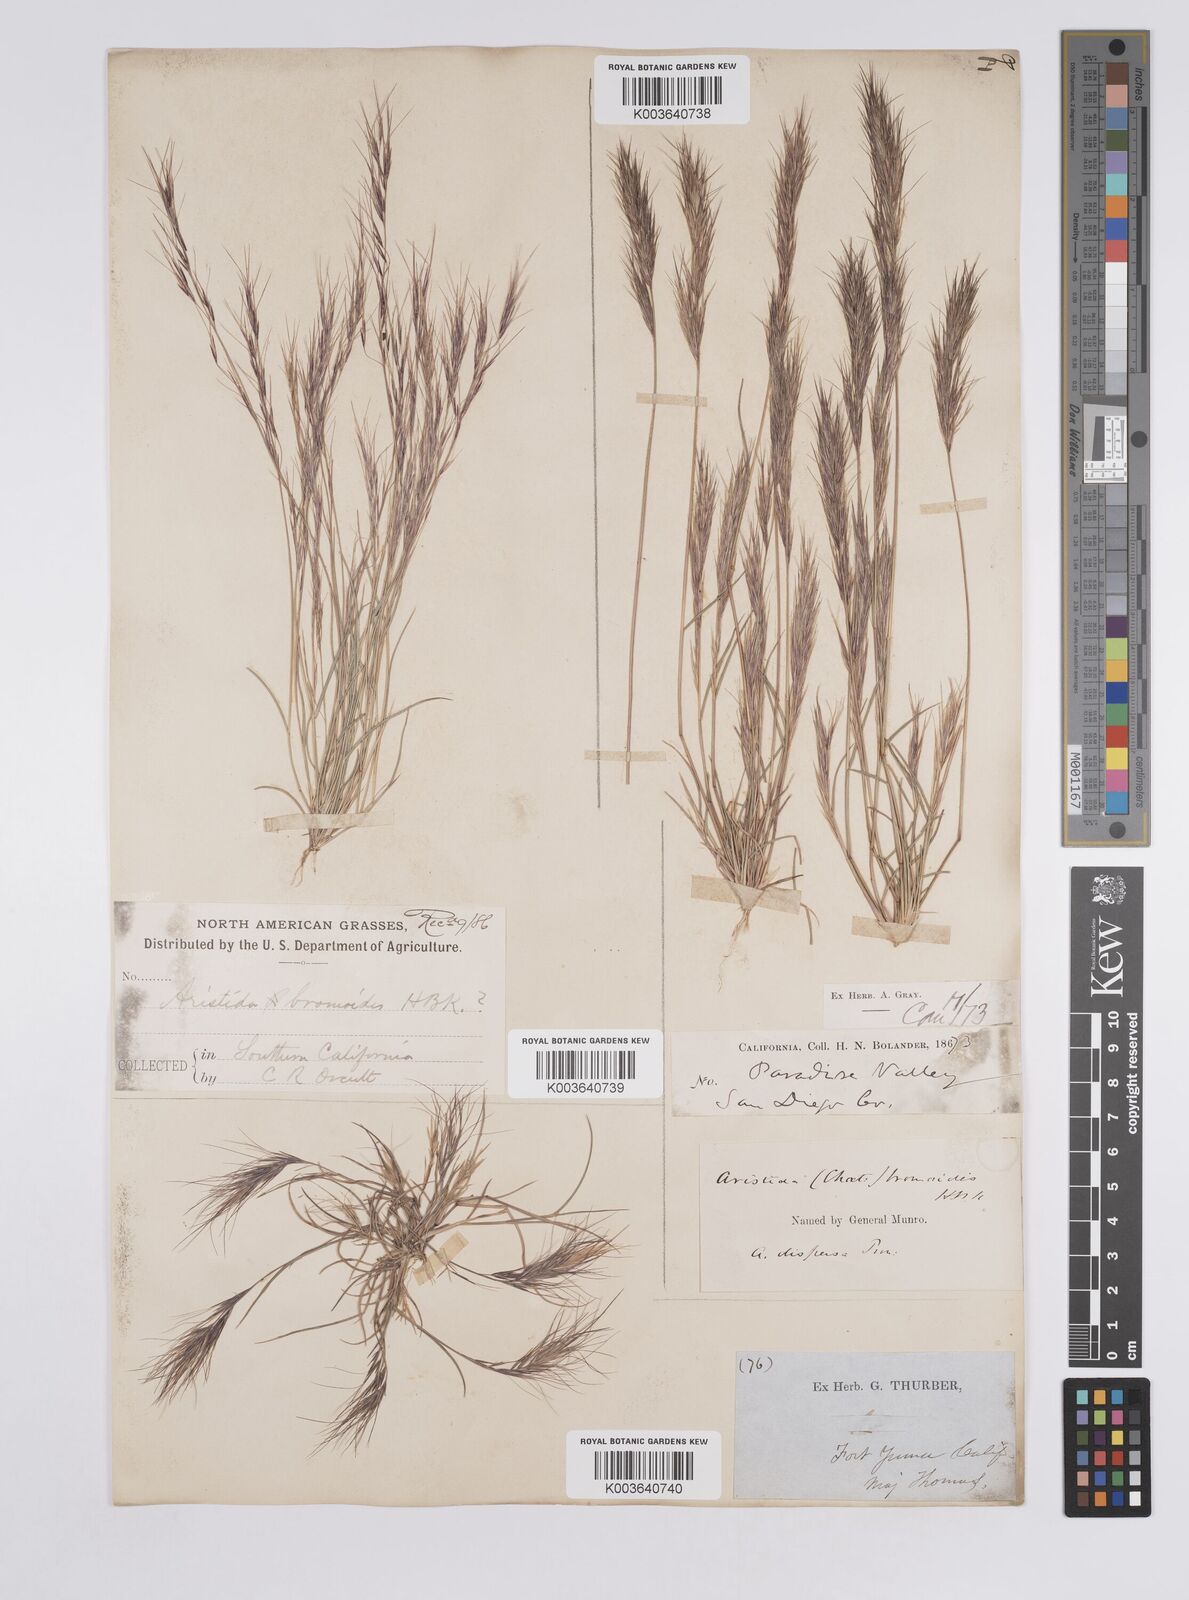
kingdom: Plantae
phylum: Tracheophyta
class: Liliopsida
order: Poales
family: Poaceae
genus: Aristida
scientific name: Aristida adscensionis
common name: Sixweeks threeawn
